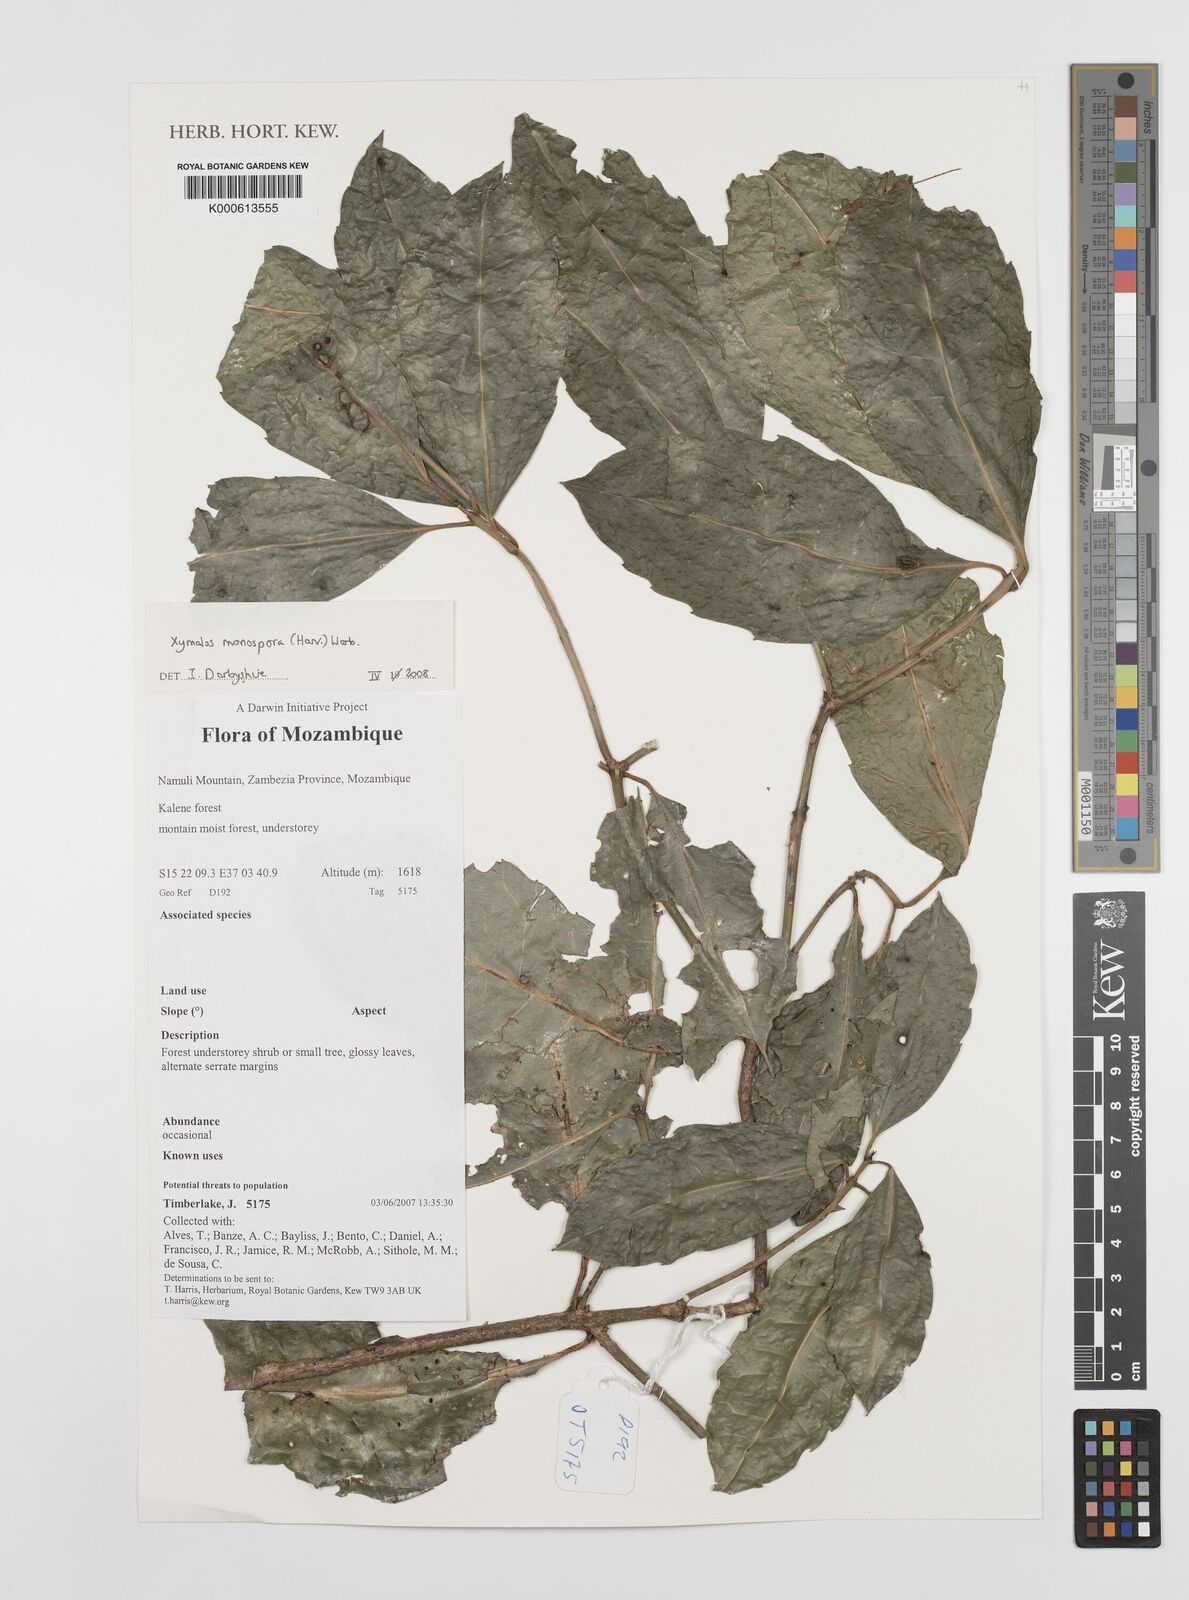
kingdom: Plantae
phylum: Tracheophyta
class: Magnoliopsida
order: Laurales
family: Monimiaceae
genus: Xymalos
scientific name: Xymalos
